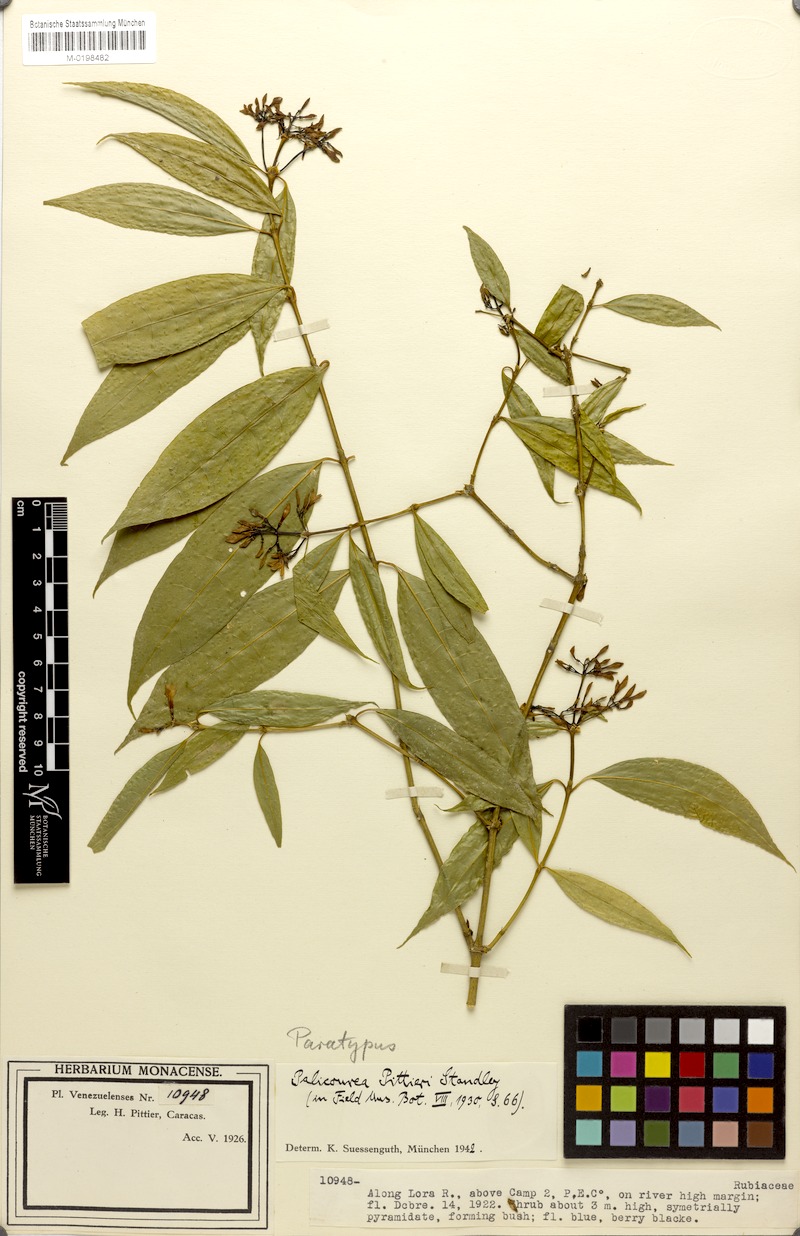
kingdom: Plantae
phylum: Tracheophyta
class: Magnoliopsida
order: Gentianales
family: Rubiaceae
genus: Palicourea
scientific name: Palicourea pittieri
